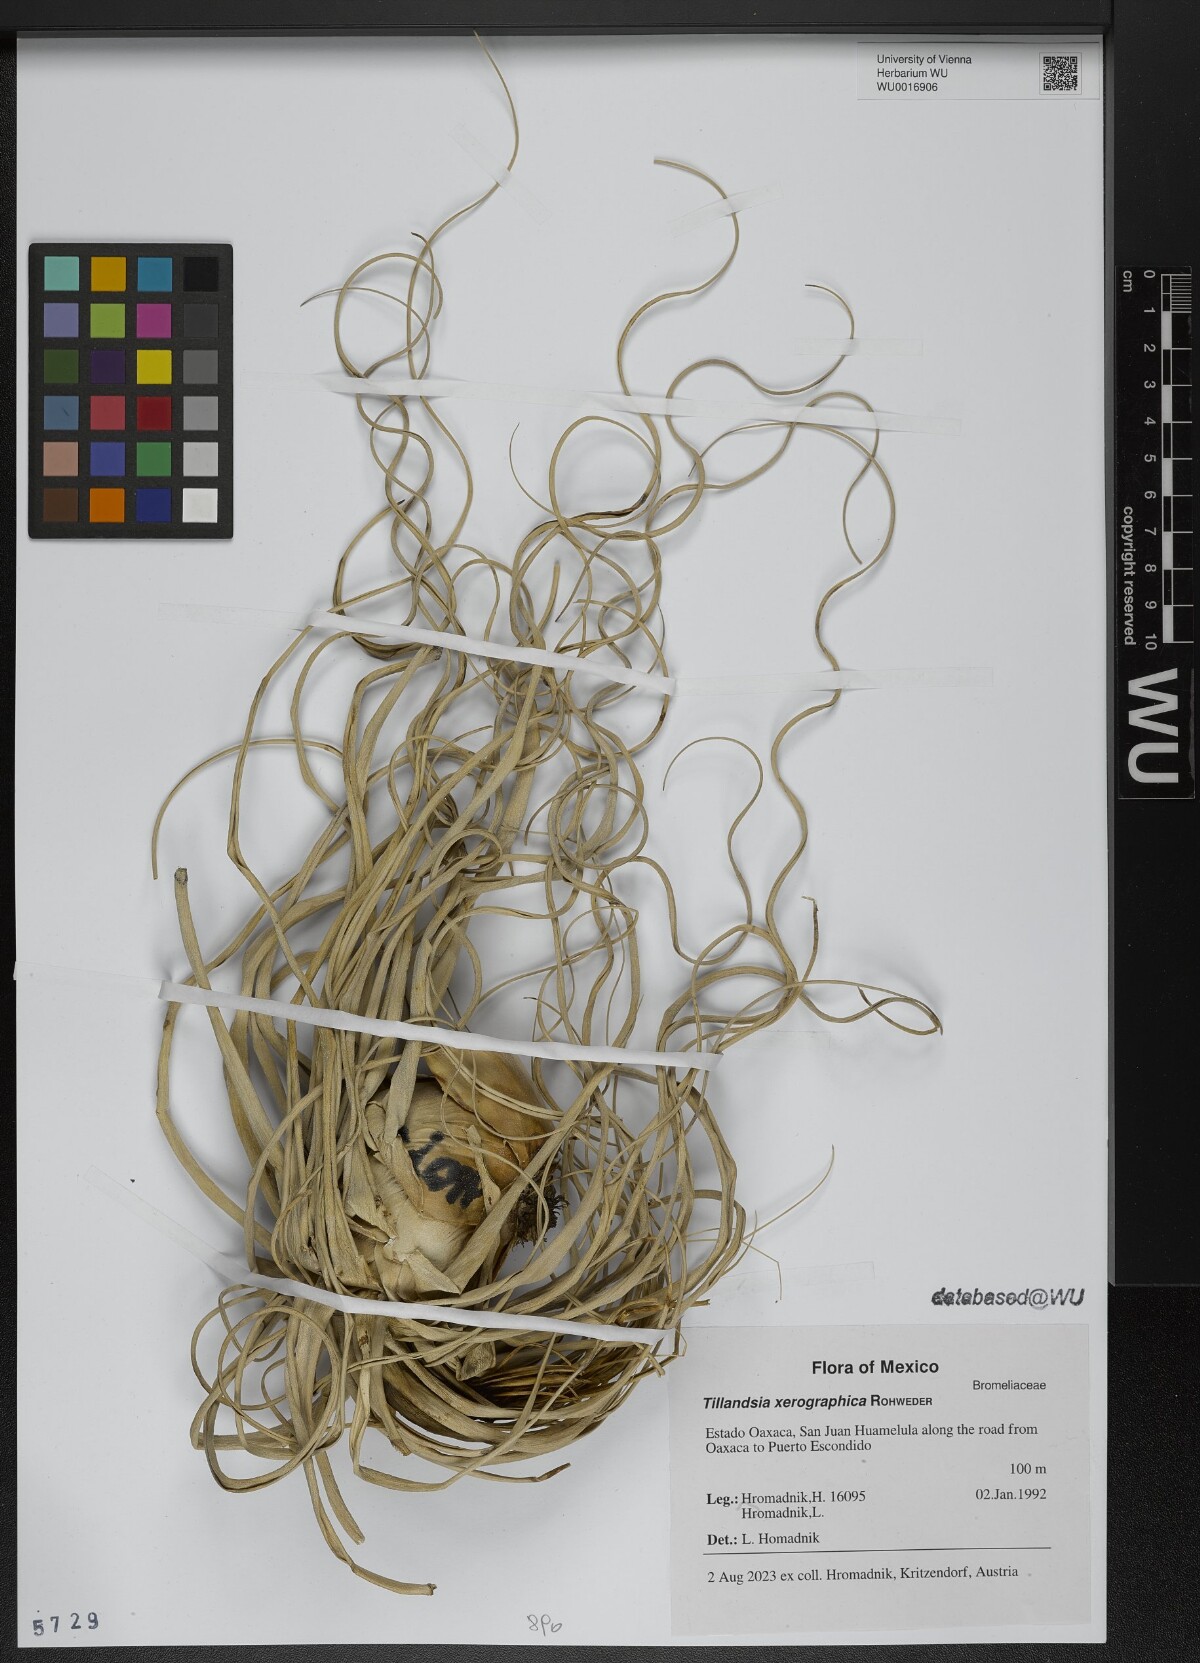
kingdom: Plantae
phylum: Tracheophyta
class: Liliopsida
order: Poales
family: Bromeliaceae
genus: Tillandsia
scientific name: Tillandsia xerographica
